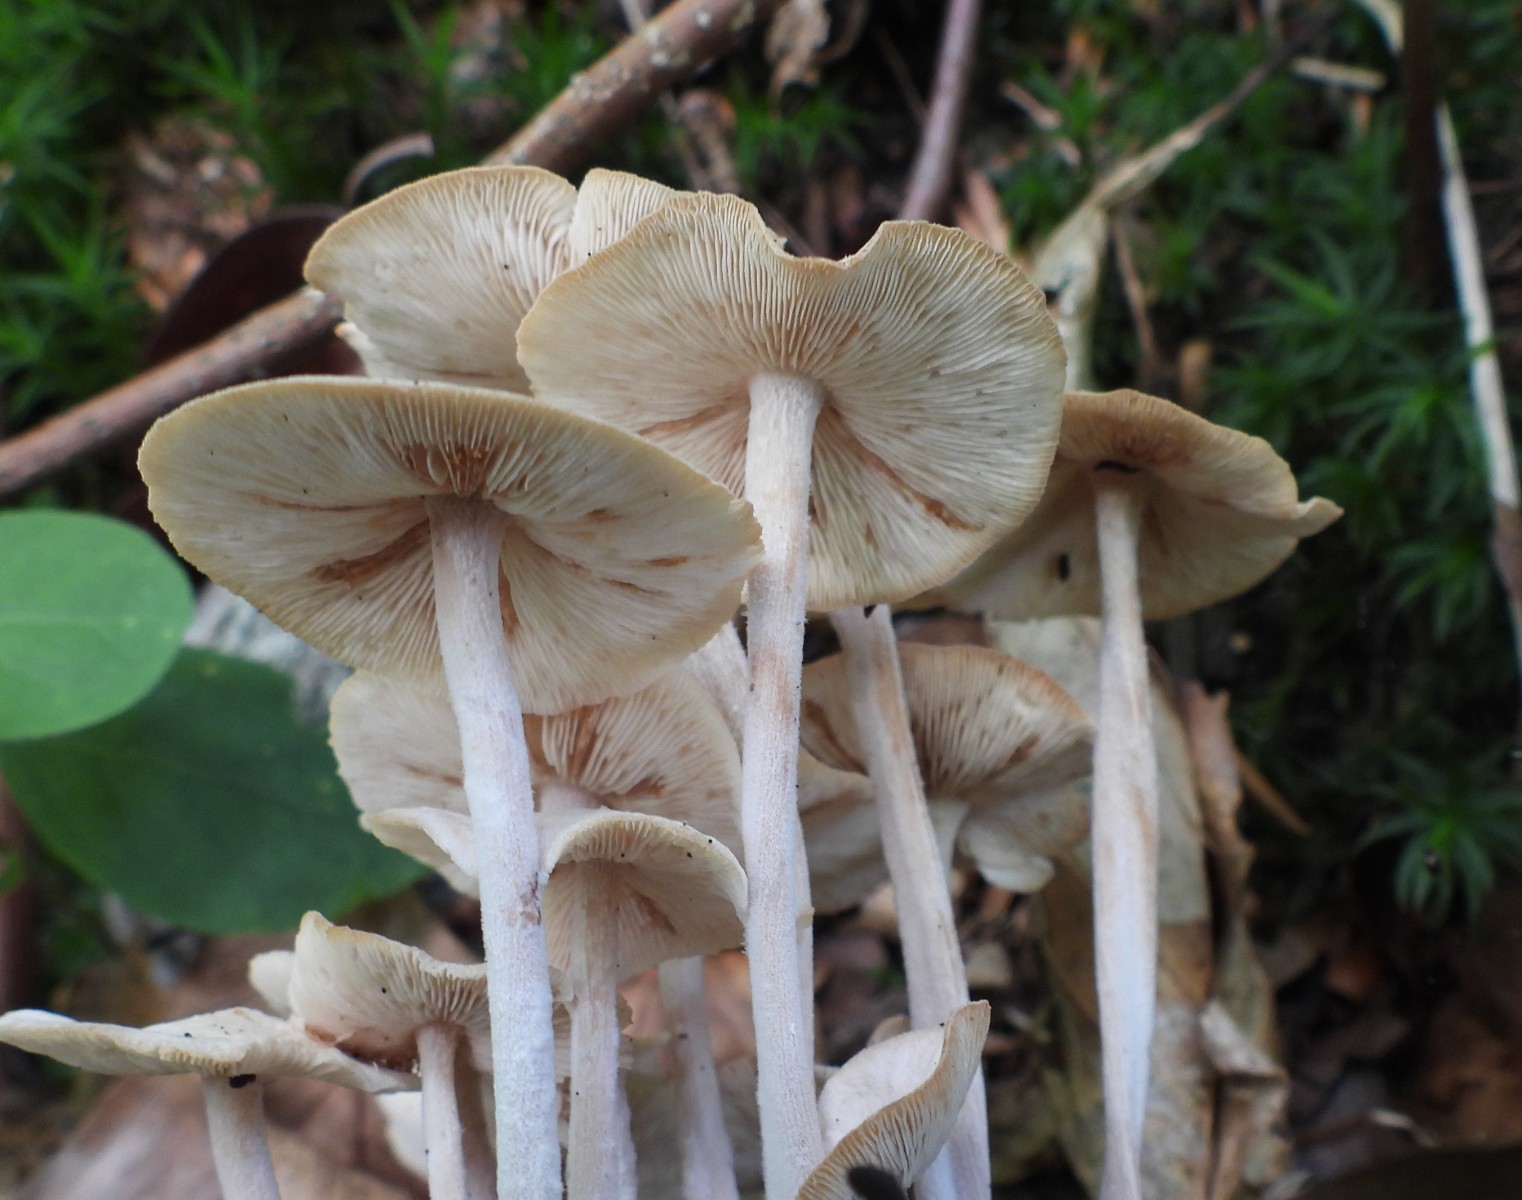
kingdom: Fungi
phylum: Basidiomycota
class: Agaricomycetes
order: Agaricales
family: Omphalotaceae
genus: Collybiopsis
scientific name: Collybiopsis confluens
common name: knippe-fladhat
